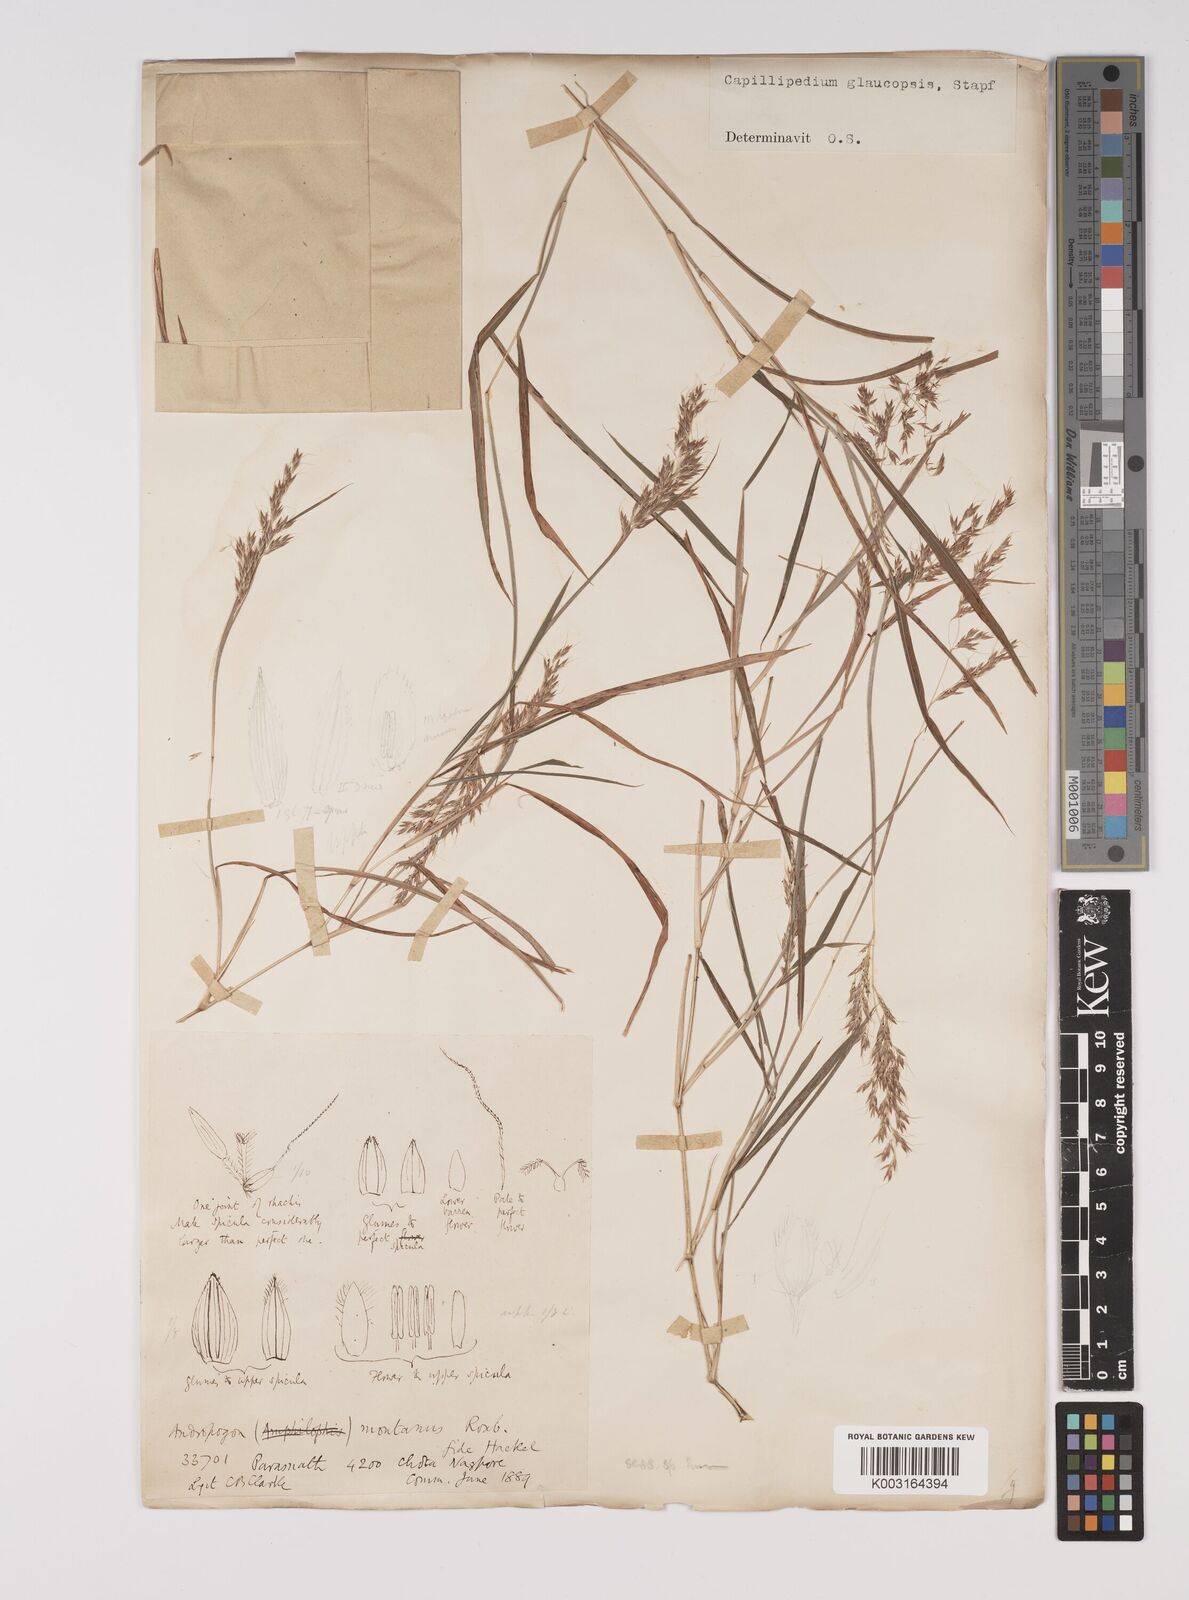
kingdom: Plantae
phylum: Tracheophyta
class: Liliopsida
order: Poales
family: Poaceae
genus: Capillipedium
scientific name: Capillipedium assimile
